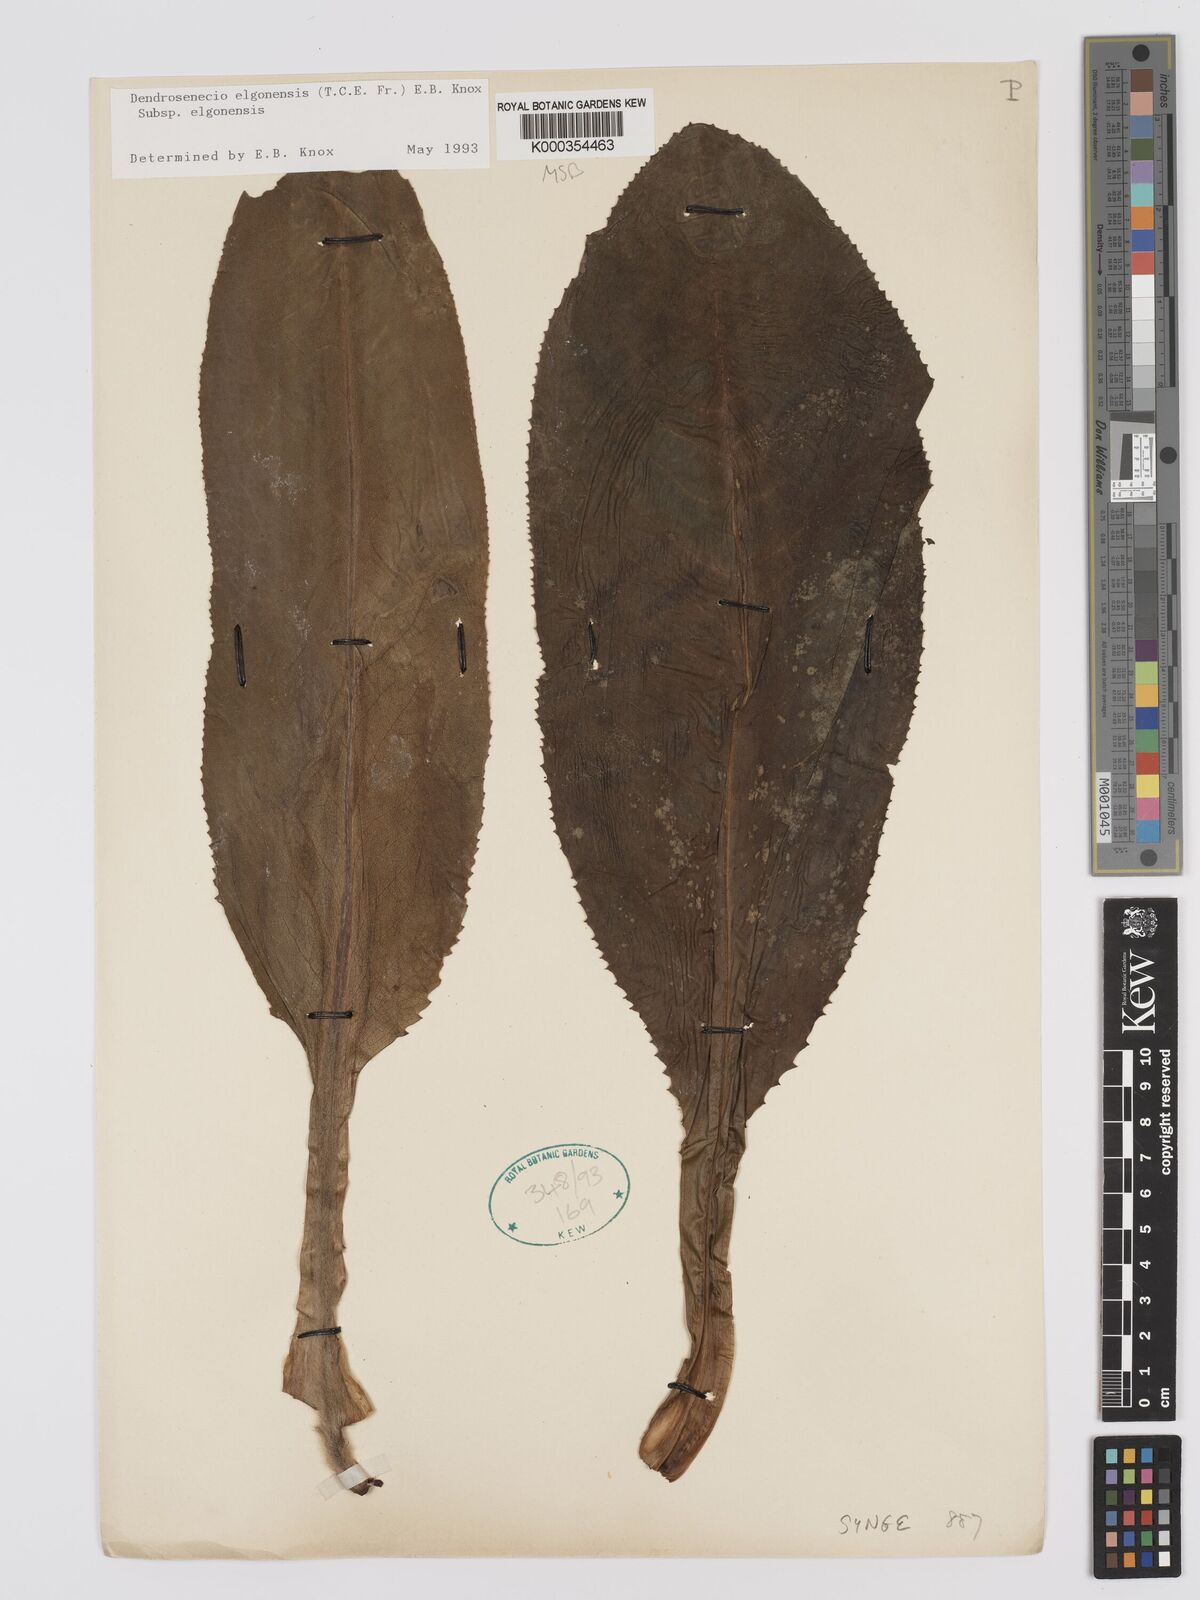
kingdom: Plantae
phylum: Tracheophyta
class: Magnoliopsida
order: Asterales
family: Asteraceae
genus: Dendrosenecio
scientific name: Dendrosenecio elgonensis
